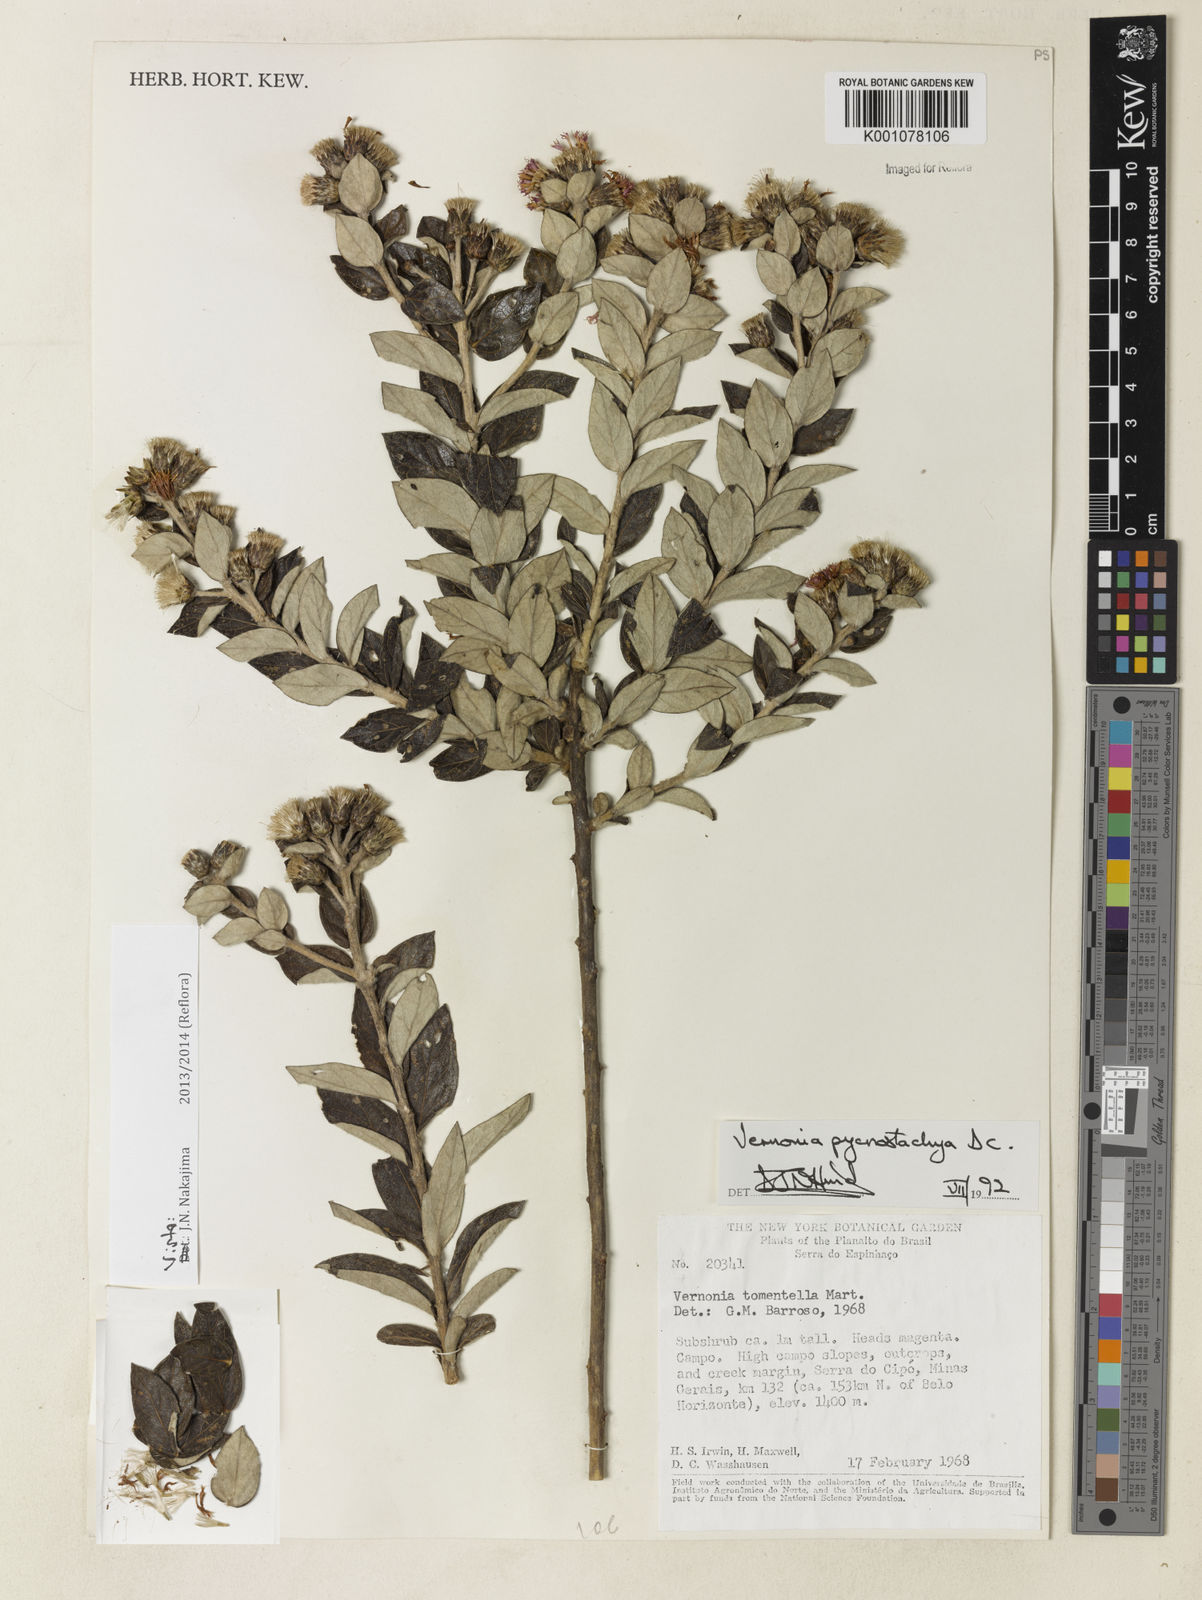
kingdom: Plantae
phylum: Tracheophyta
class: Magnoliopsida
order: Asterales
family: Asteraceae
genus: Lessingianthus
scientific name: Lessingianthus pycnostachyus
